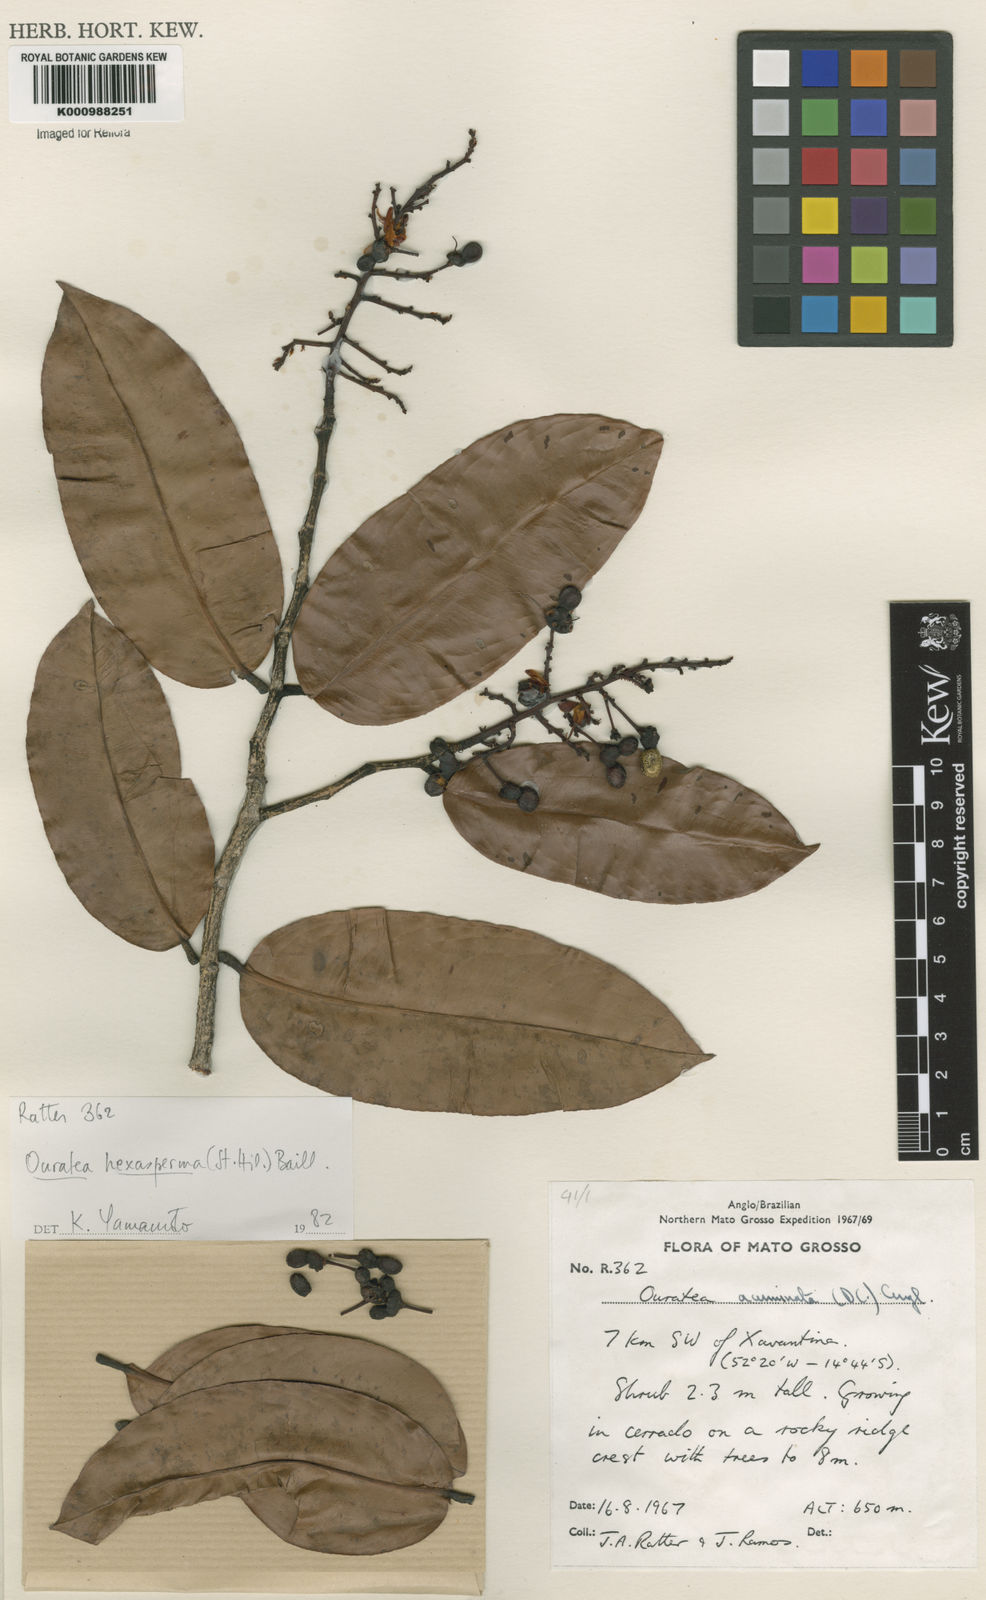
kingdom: Plantae
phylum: Tracheophyta
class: Magnoliopsida
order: Malpighiales
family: Ochnaceae
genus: Ouratea
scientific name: Ouratea hexasperma
